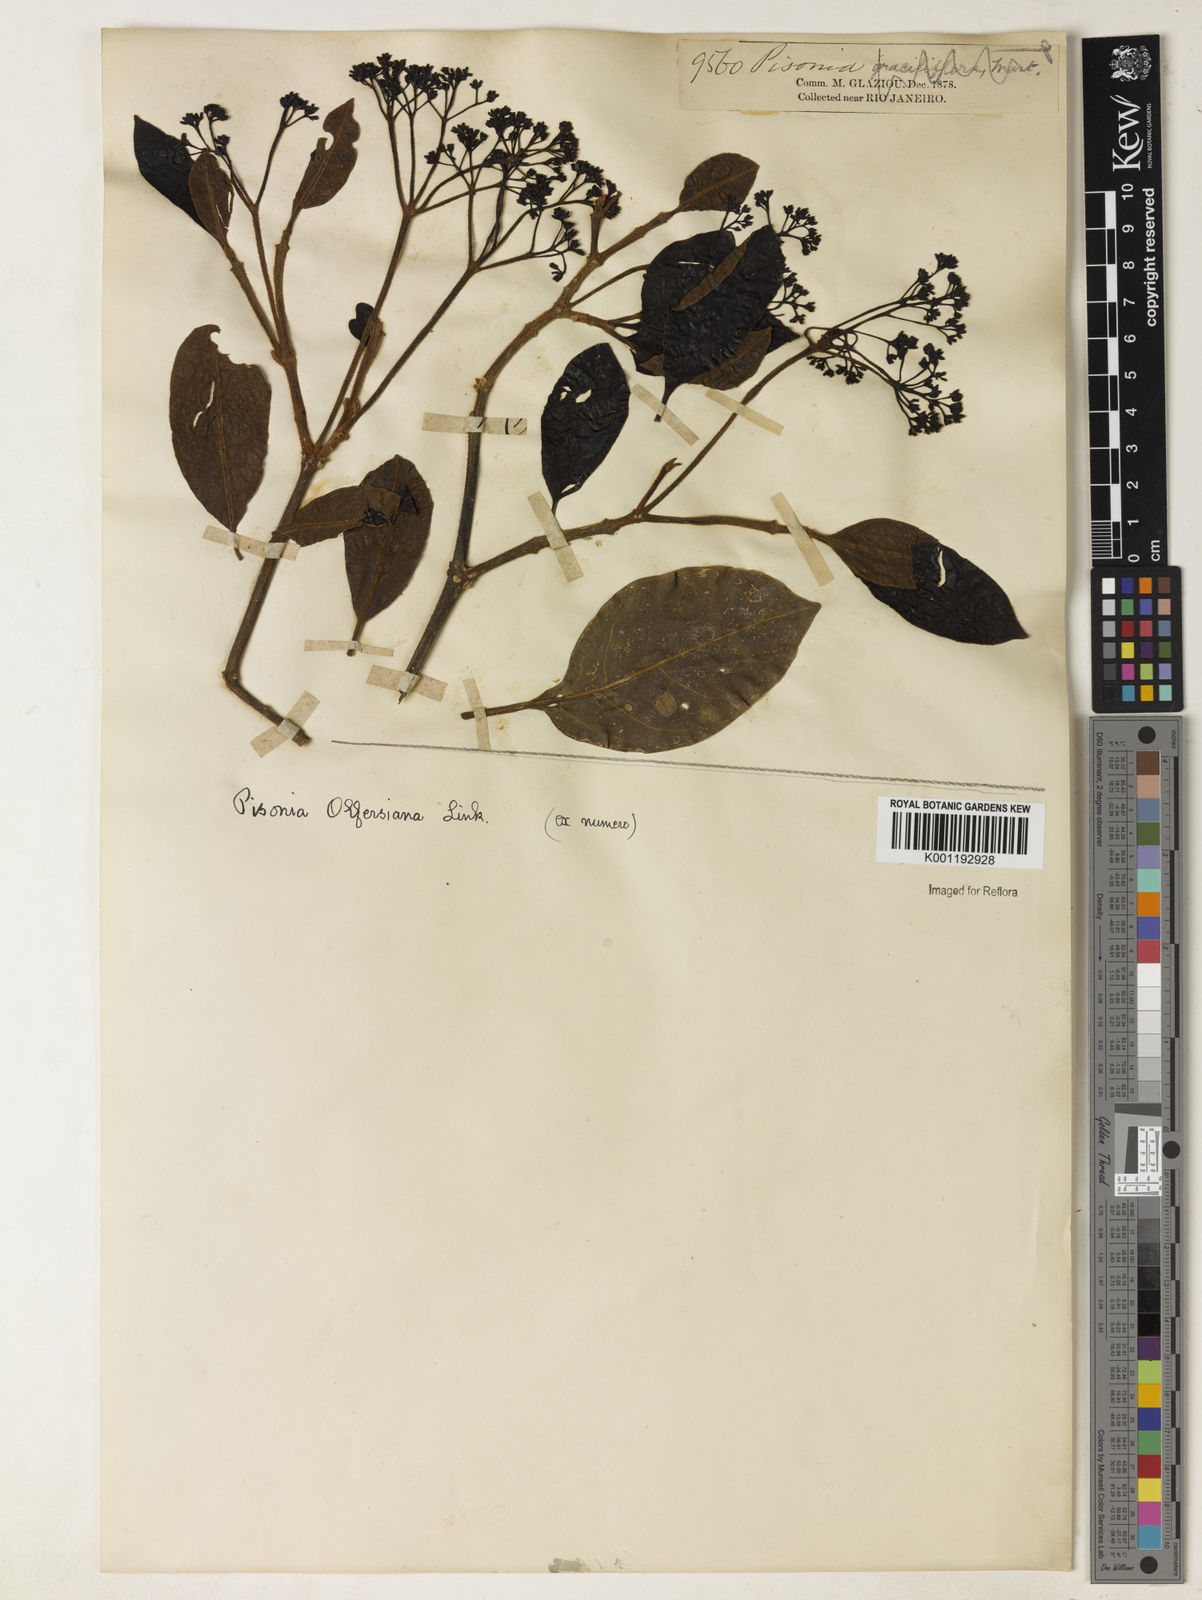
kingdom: Plantae
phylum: Tracheophyta
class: Magnoliopsida
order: Caryophyllales
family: Nyctaginaceae
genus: Guapira
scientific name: Guapira
